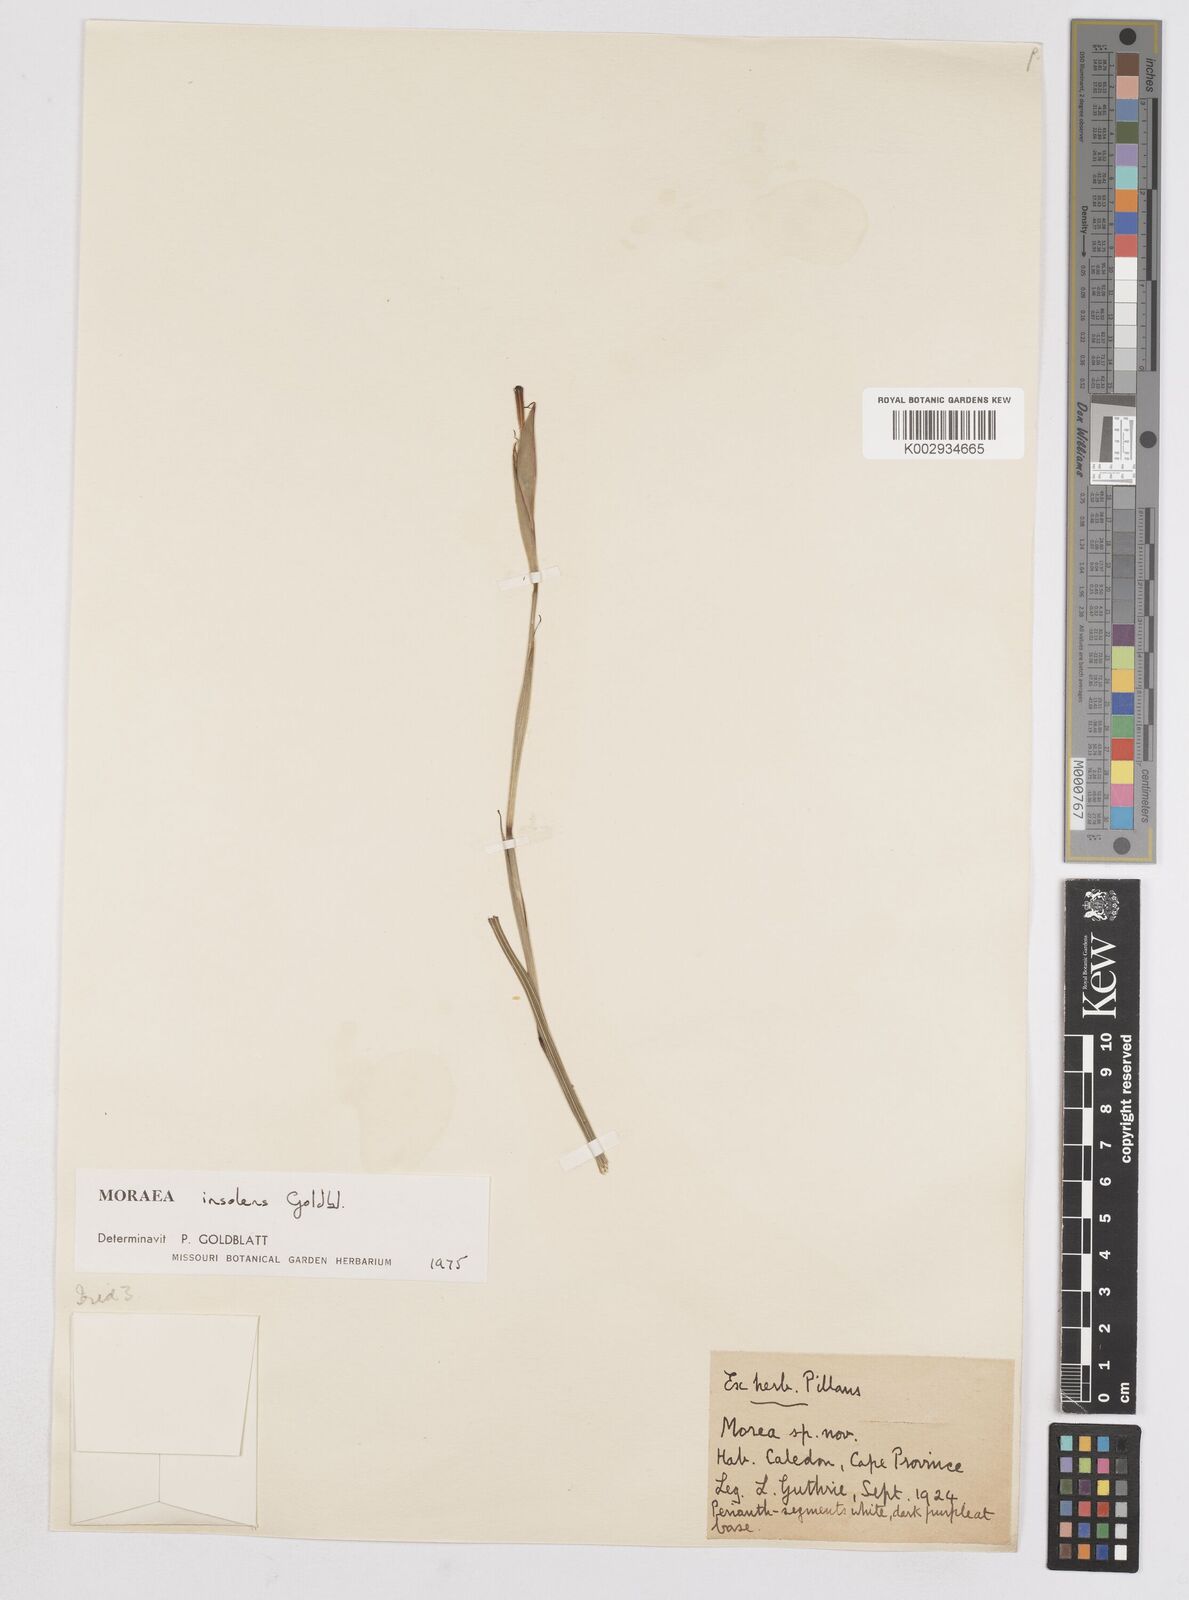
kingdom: Plantae
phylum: Tracheophyta
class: Liliopsida
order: Asparagales
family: Iridaceae
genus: Moraea
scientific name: Moraea insolens
